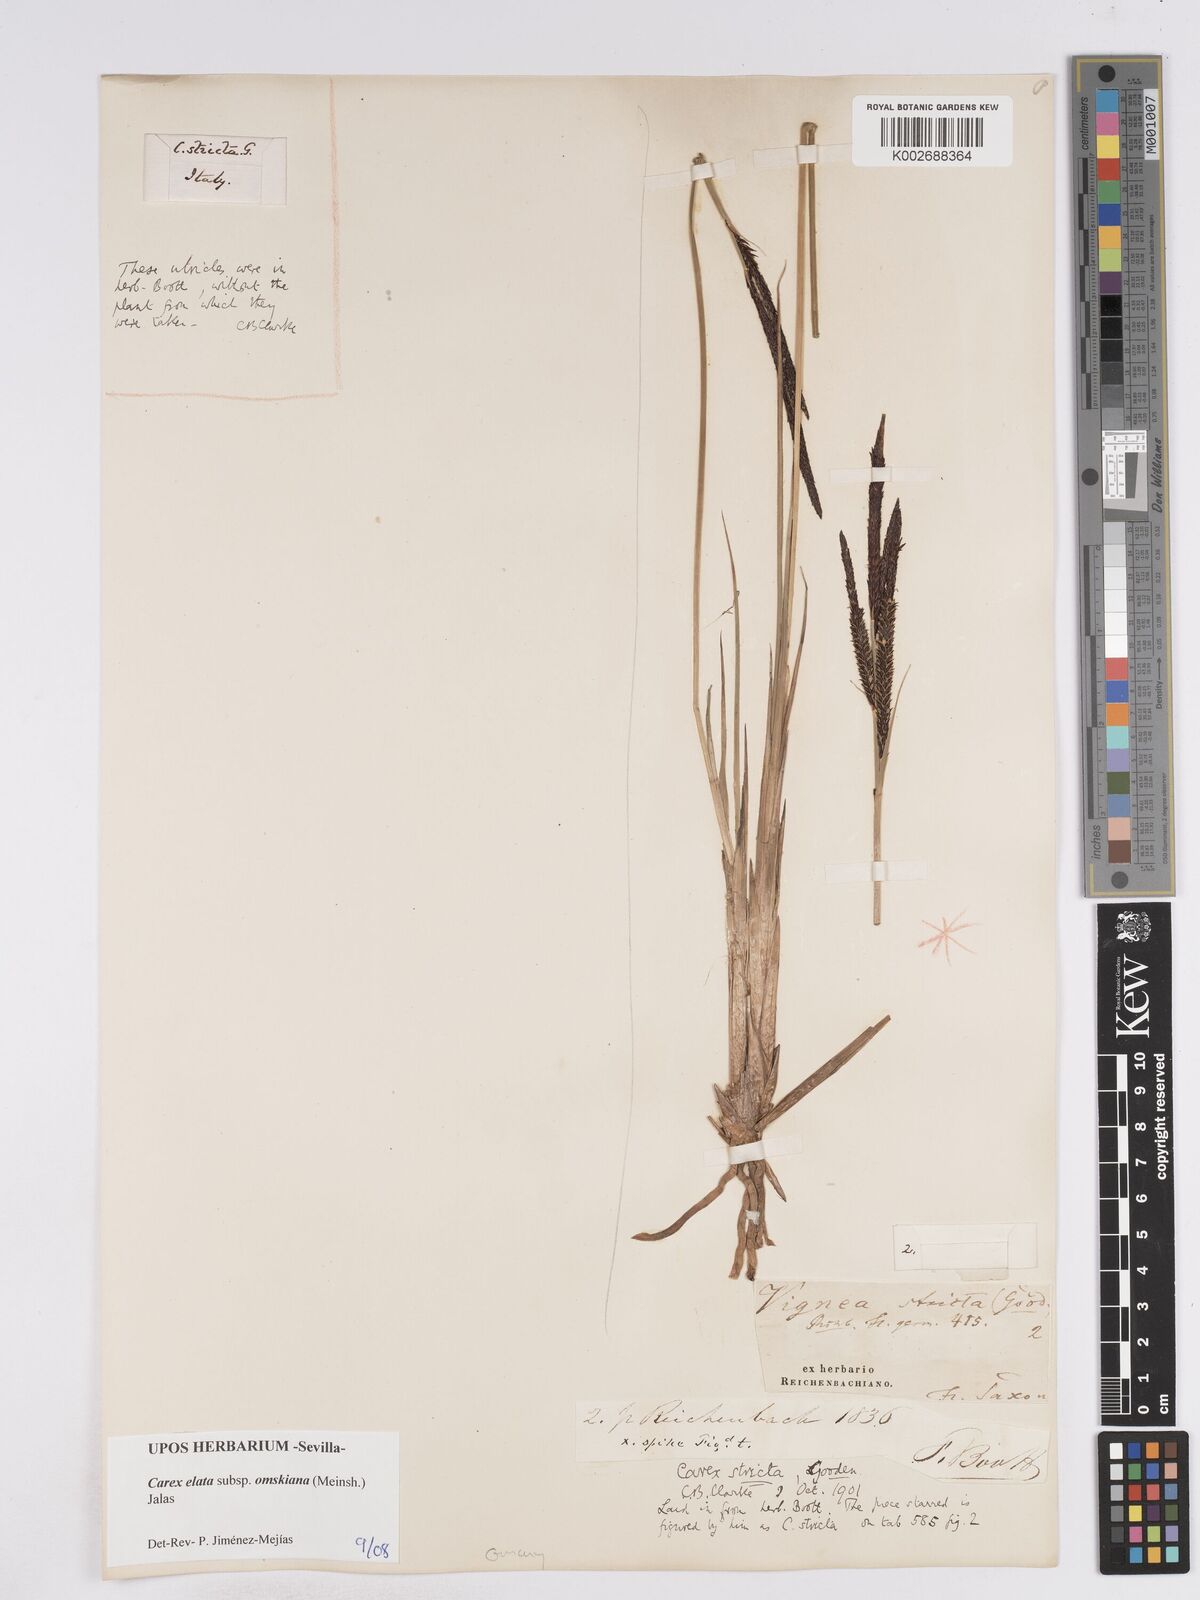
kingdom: Plantae
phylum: Tracheophyta
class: Liliopsida
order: Poales
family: Cyperaceae
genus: Carex
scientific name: Carex elata
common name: Tufted sedge
